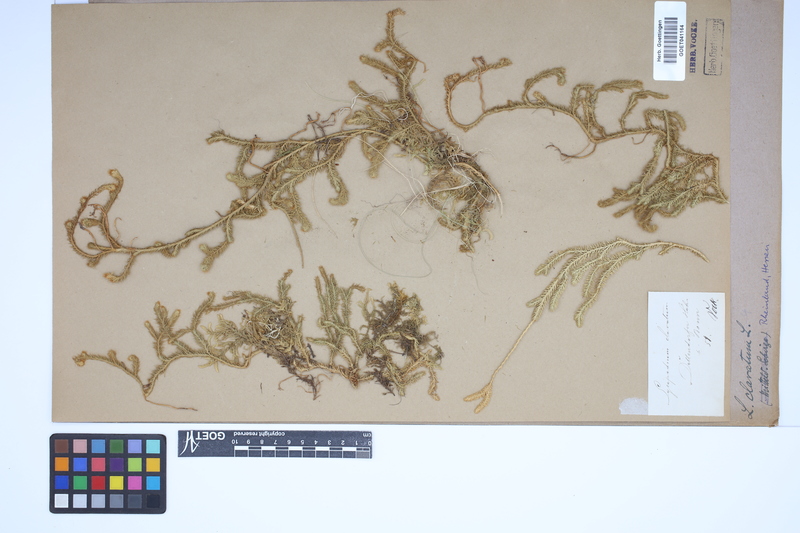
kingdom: Plantae
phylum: Tracheophyta
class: Lycopodiopsida
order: Lycopodiales
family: Lycopodiaceae
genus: Lycopodium
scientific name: Lycopodium clavatum
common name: Stag's-horn clubmoss
